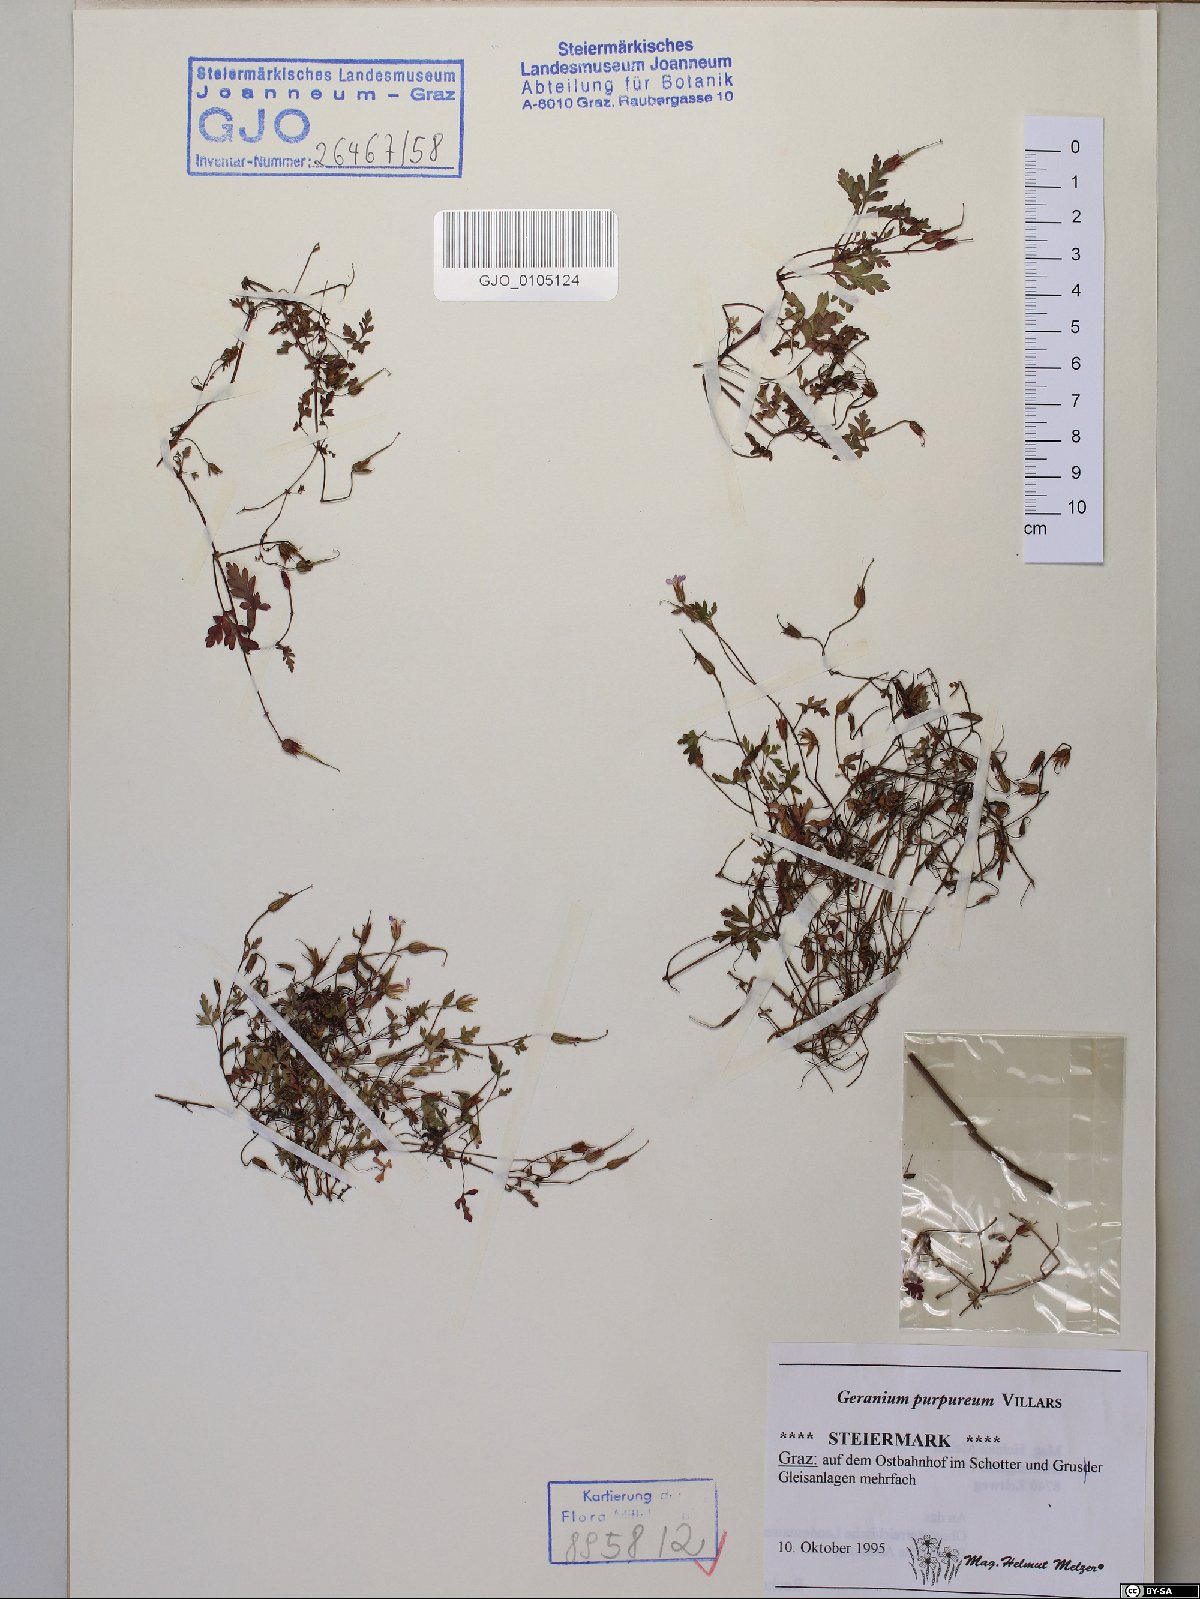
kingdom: Plantae
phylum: Tracheophyta
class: Magnoliopsida
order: Geraniales
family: Geraniaceae
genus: Geranium
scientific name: Geranium purpureum
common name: Little-robin
